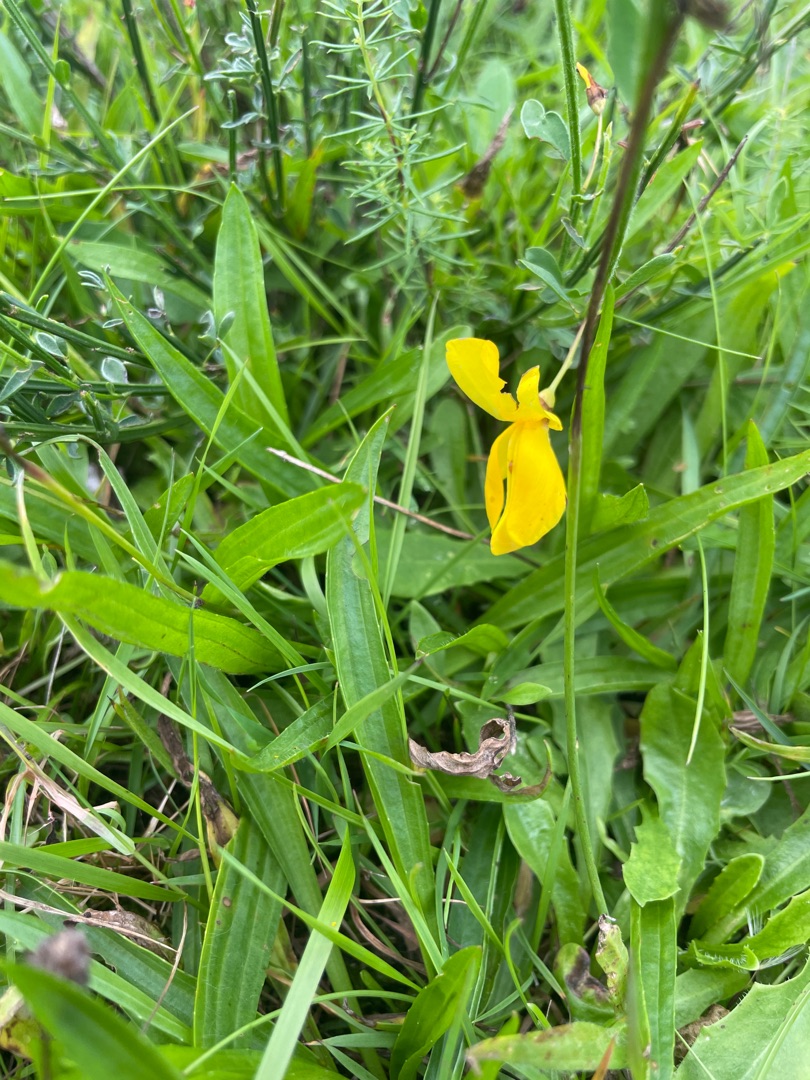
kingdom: Plantae
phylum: Tracheophyta
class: Liliopsida
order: Asparagales
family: Iridaceae
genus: Iris
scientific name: Iris pseudacorus
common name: Gul iris
